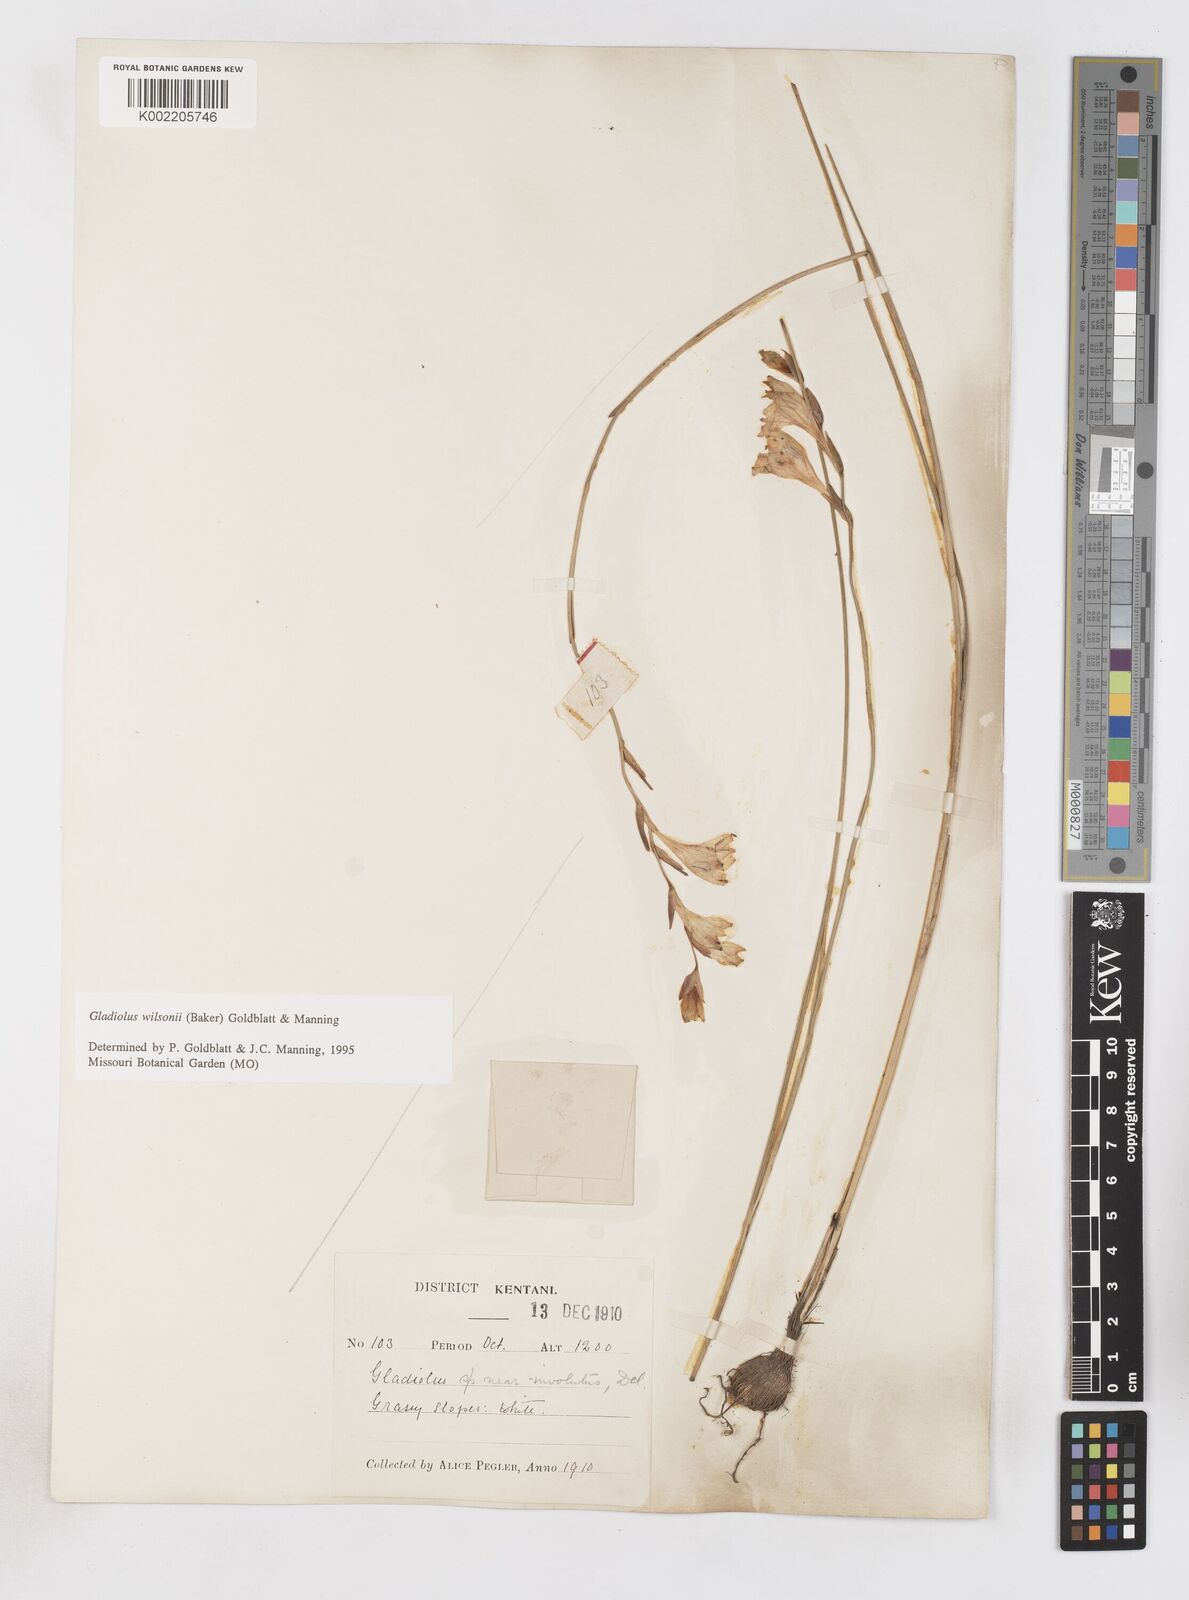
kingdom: Plantae
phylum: Tracheophyta
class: Liliopsida
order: Asparagales
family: Iridaceae
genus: Gladiolus
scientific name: Gladiolus wilsonii
